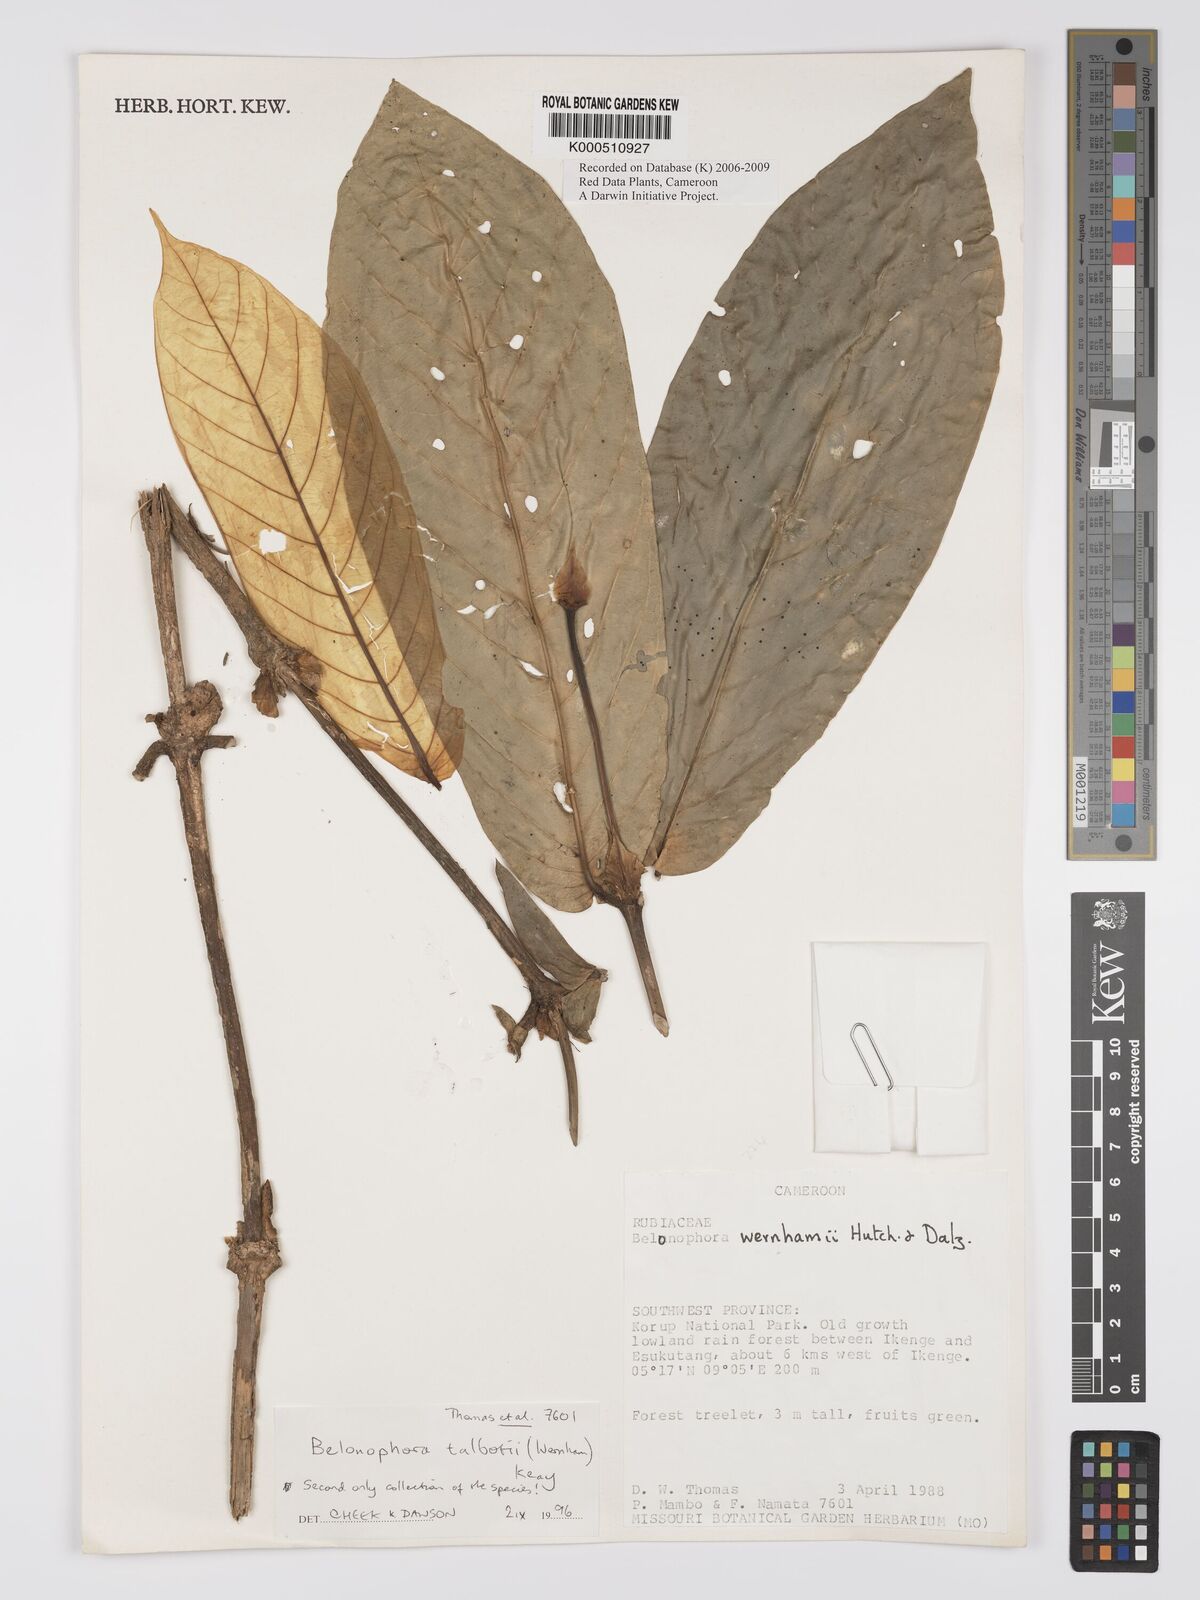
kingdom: Plantae
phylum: Tracheophyta
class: Magnoliopsida
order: Gentianales
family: Rubiaceae
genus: Belonophora
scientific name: Belonophora talbotii
